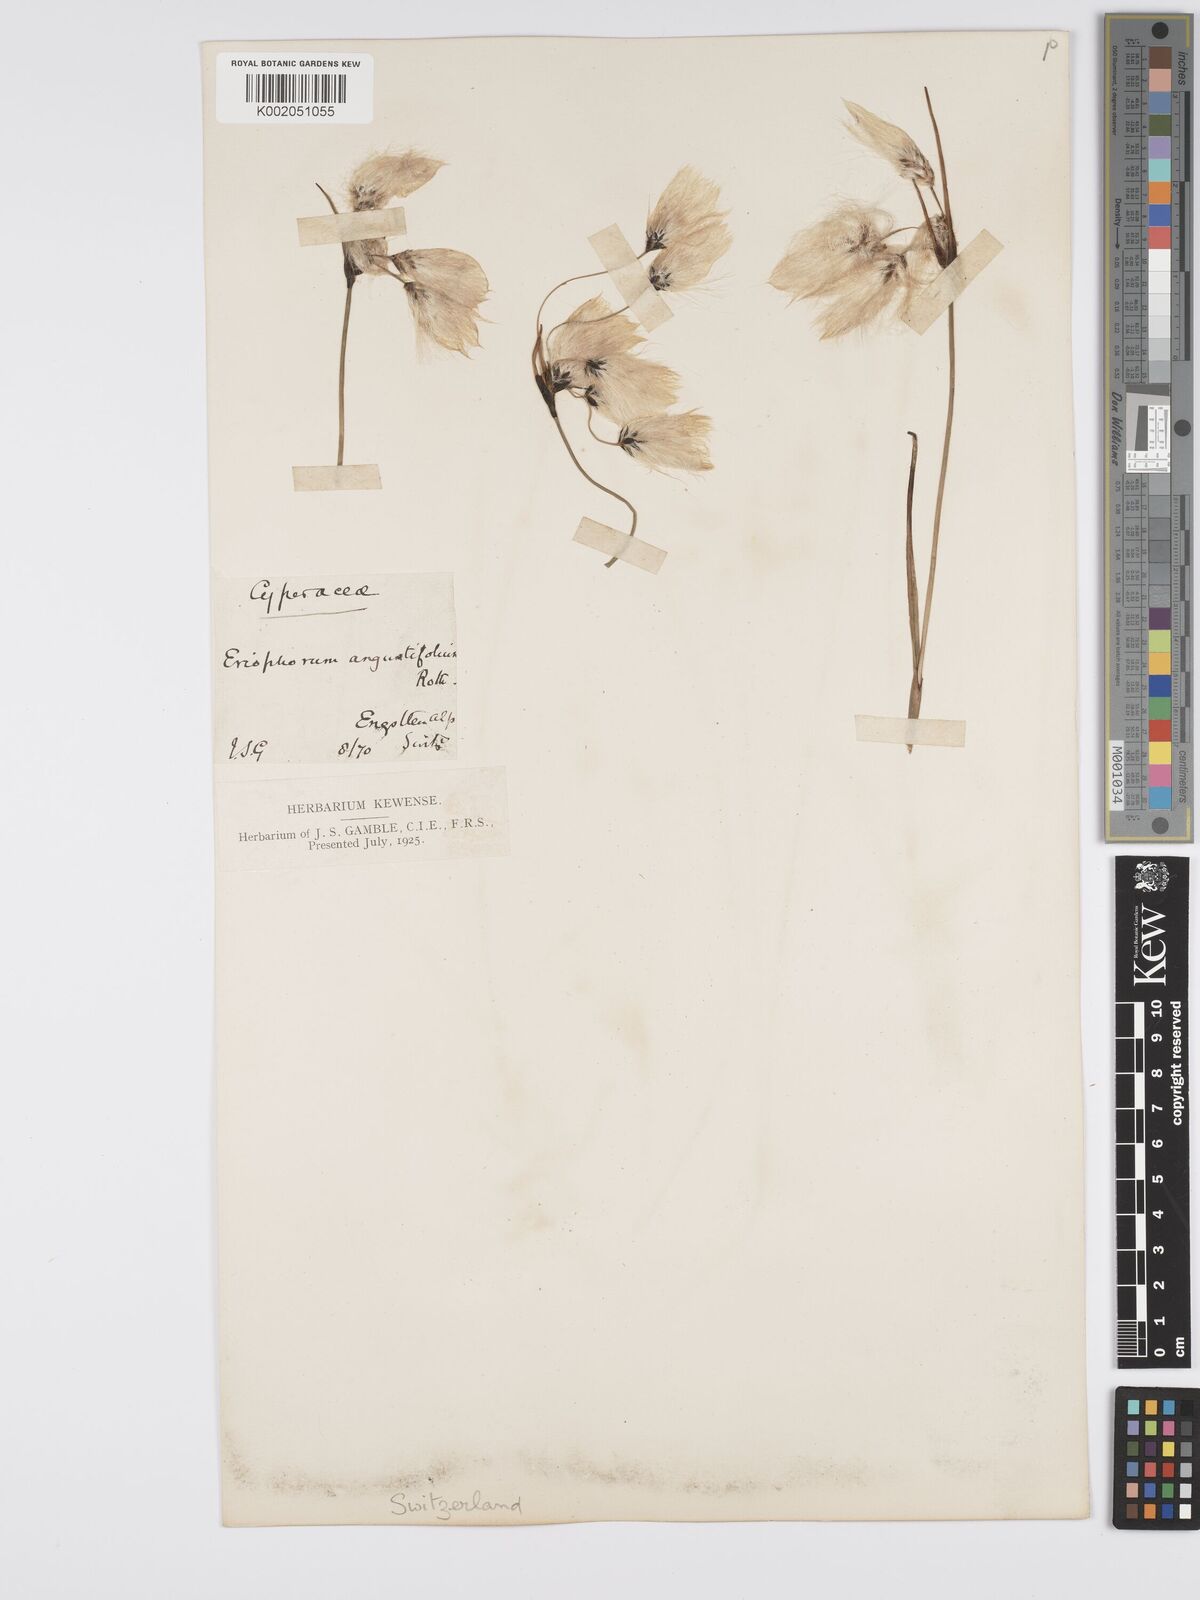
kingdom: Plantae
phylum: Tracheophyta
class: Liliopsida
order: Poales
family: Cyperaceae
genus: Eriophorum
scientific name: Eriophorum angustifolium
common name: Common cottongrass
